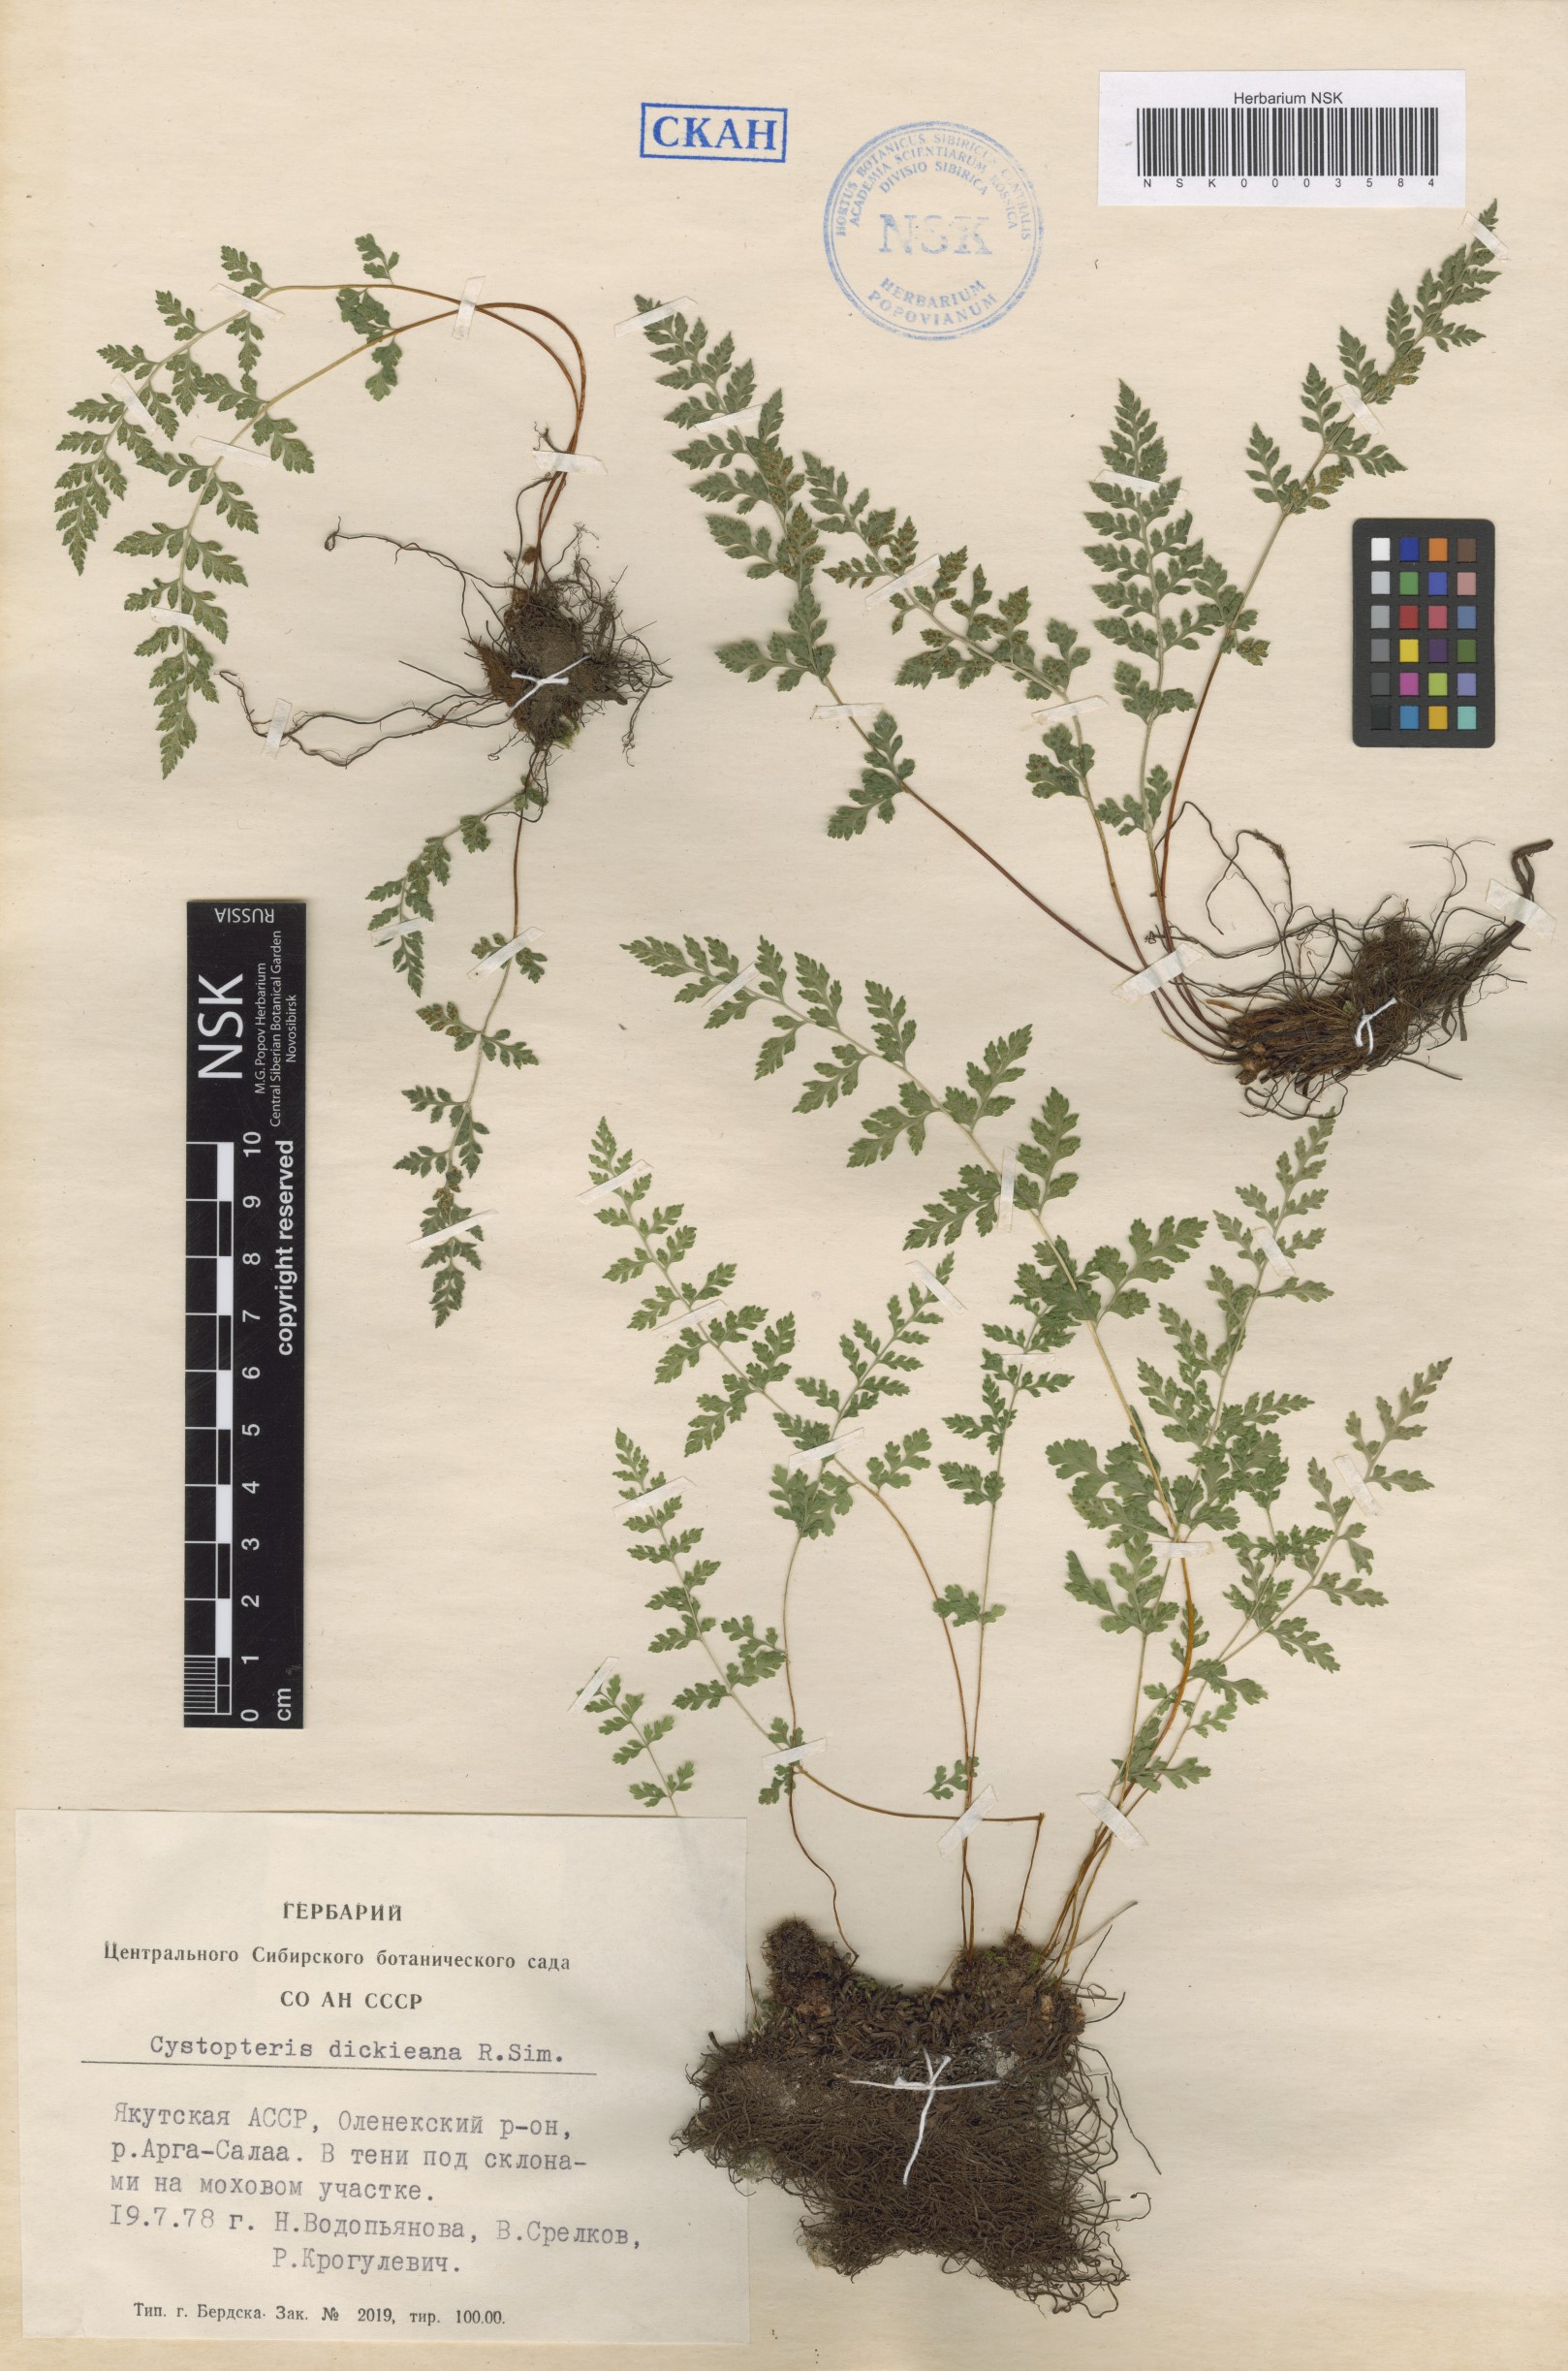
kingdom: Plantae
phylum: Tracheophyta
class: Polypodiopsida
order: Polypodiales
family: Cystopteridaceae
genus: Cystopteris
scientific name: Cystopteris dickieana
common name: Dickie's bladder-fern
